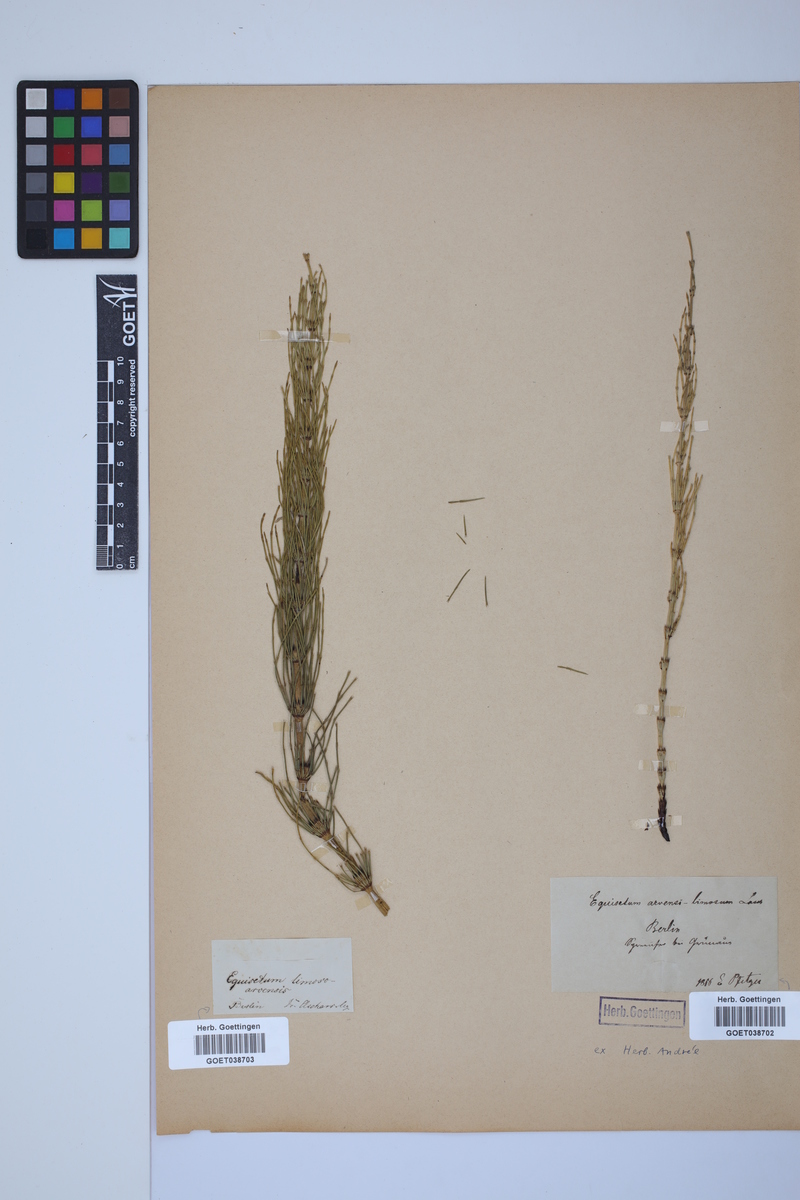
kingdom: Plantae
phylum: Tracheophyta
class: Polypodiopsida
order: Equisetales
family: Equisetaceae
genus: Equisetum
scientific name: Equisetum litorale
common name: Littoral horsetail
